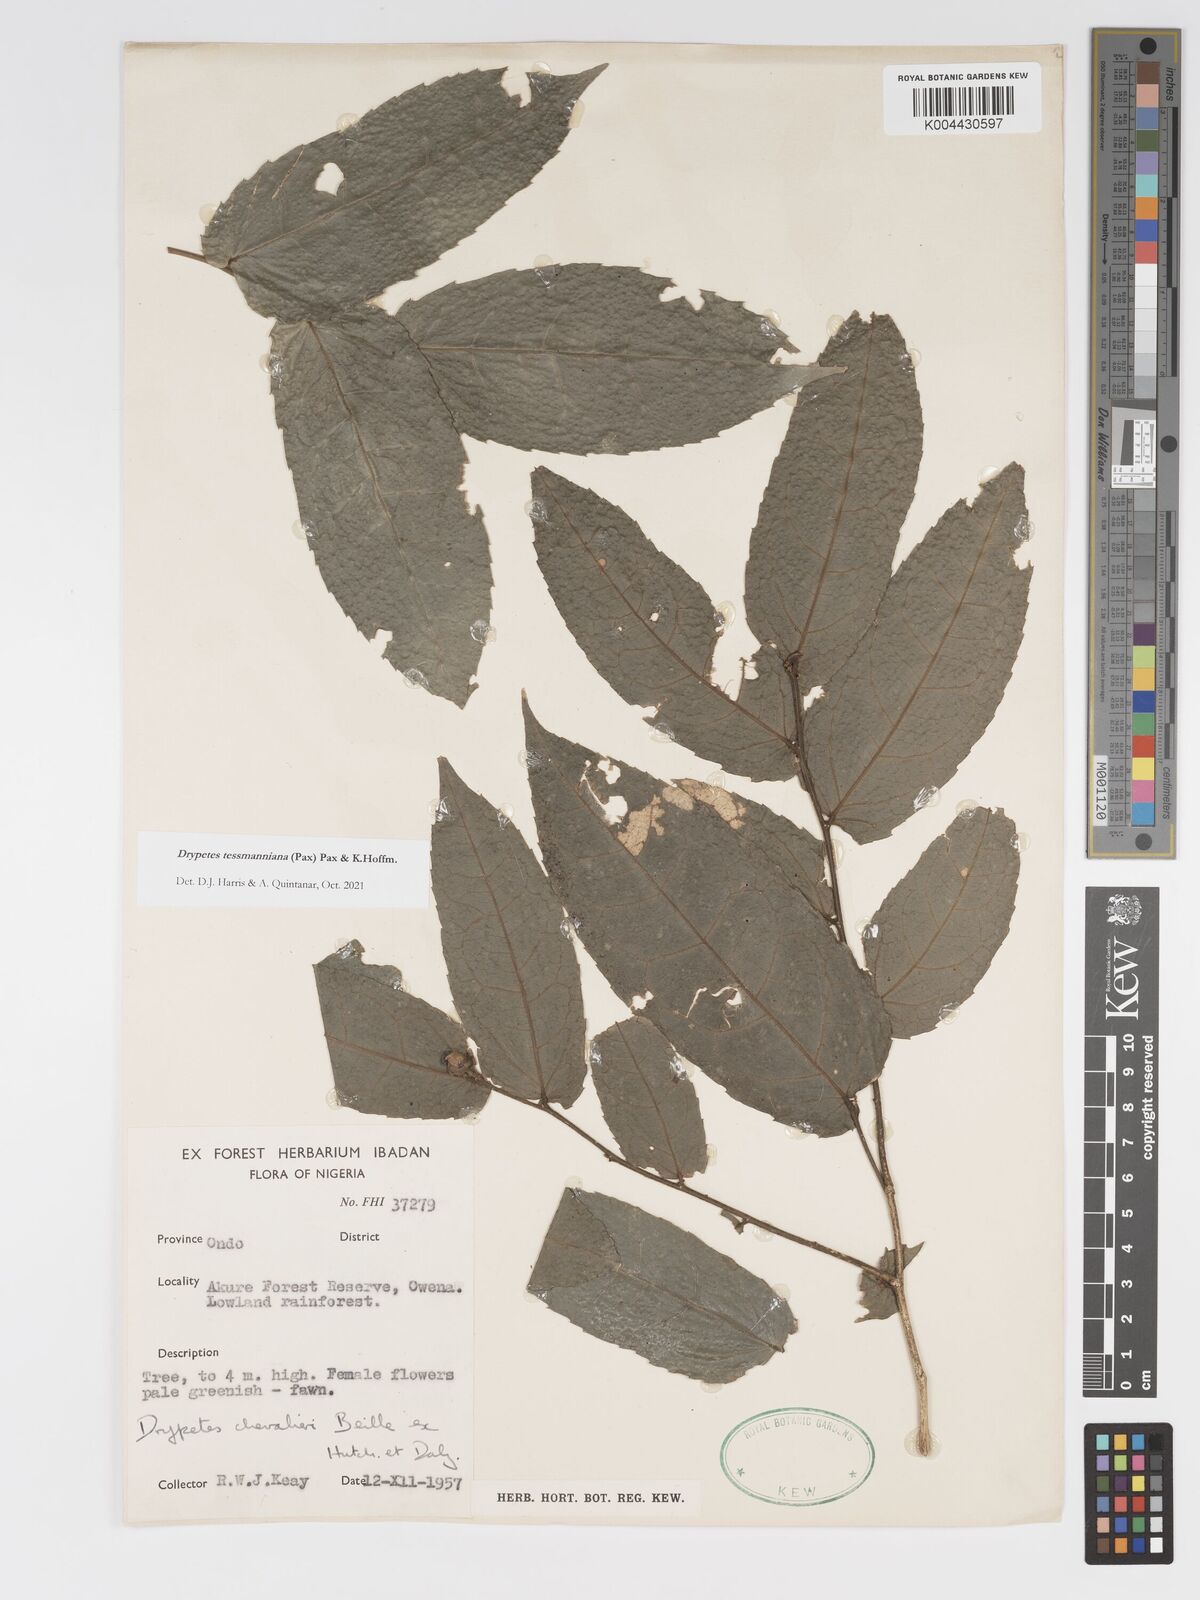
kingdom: Plantae
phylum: Tracheophyta
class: Magnoliopsida
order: Malpighiales
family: Putranjivaceae
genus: Drypetes
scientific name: Drypetes tessmanniana
